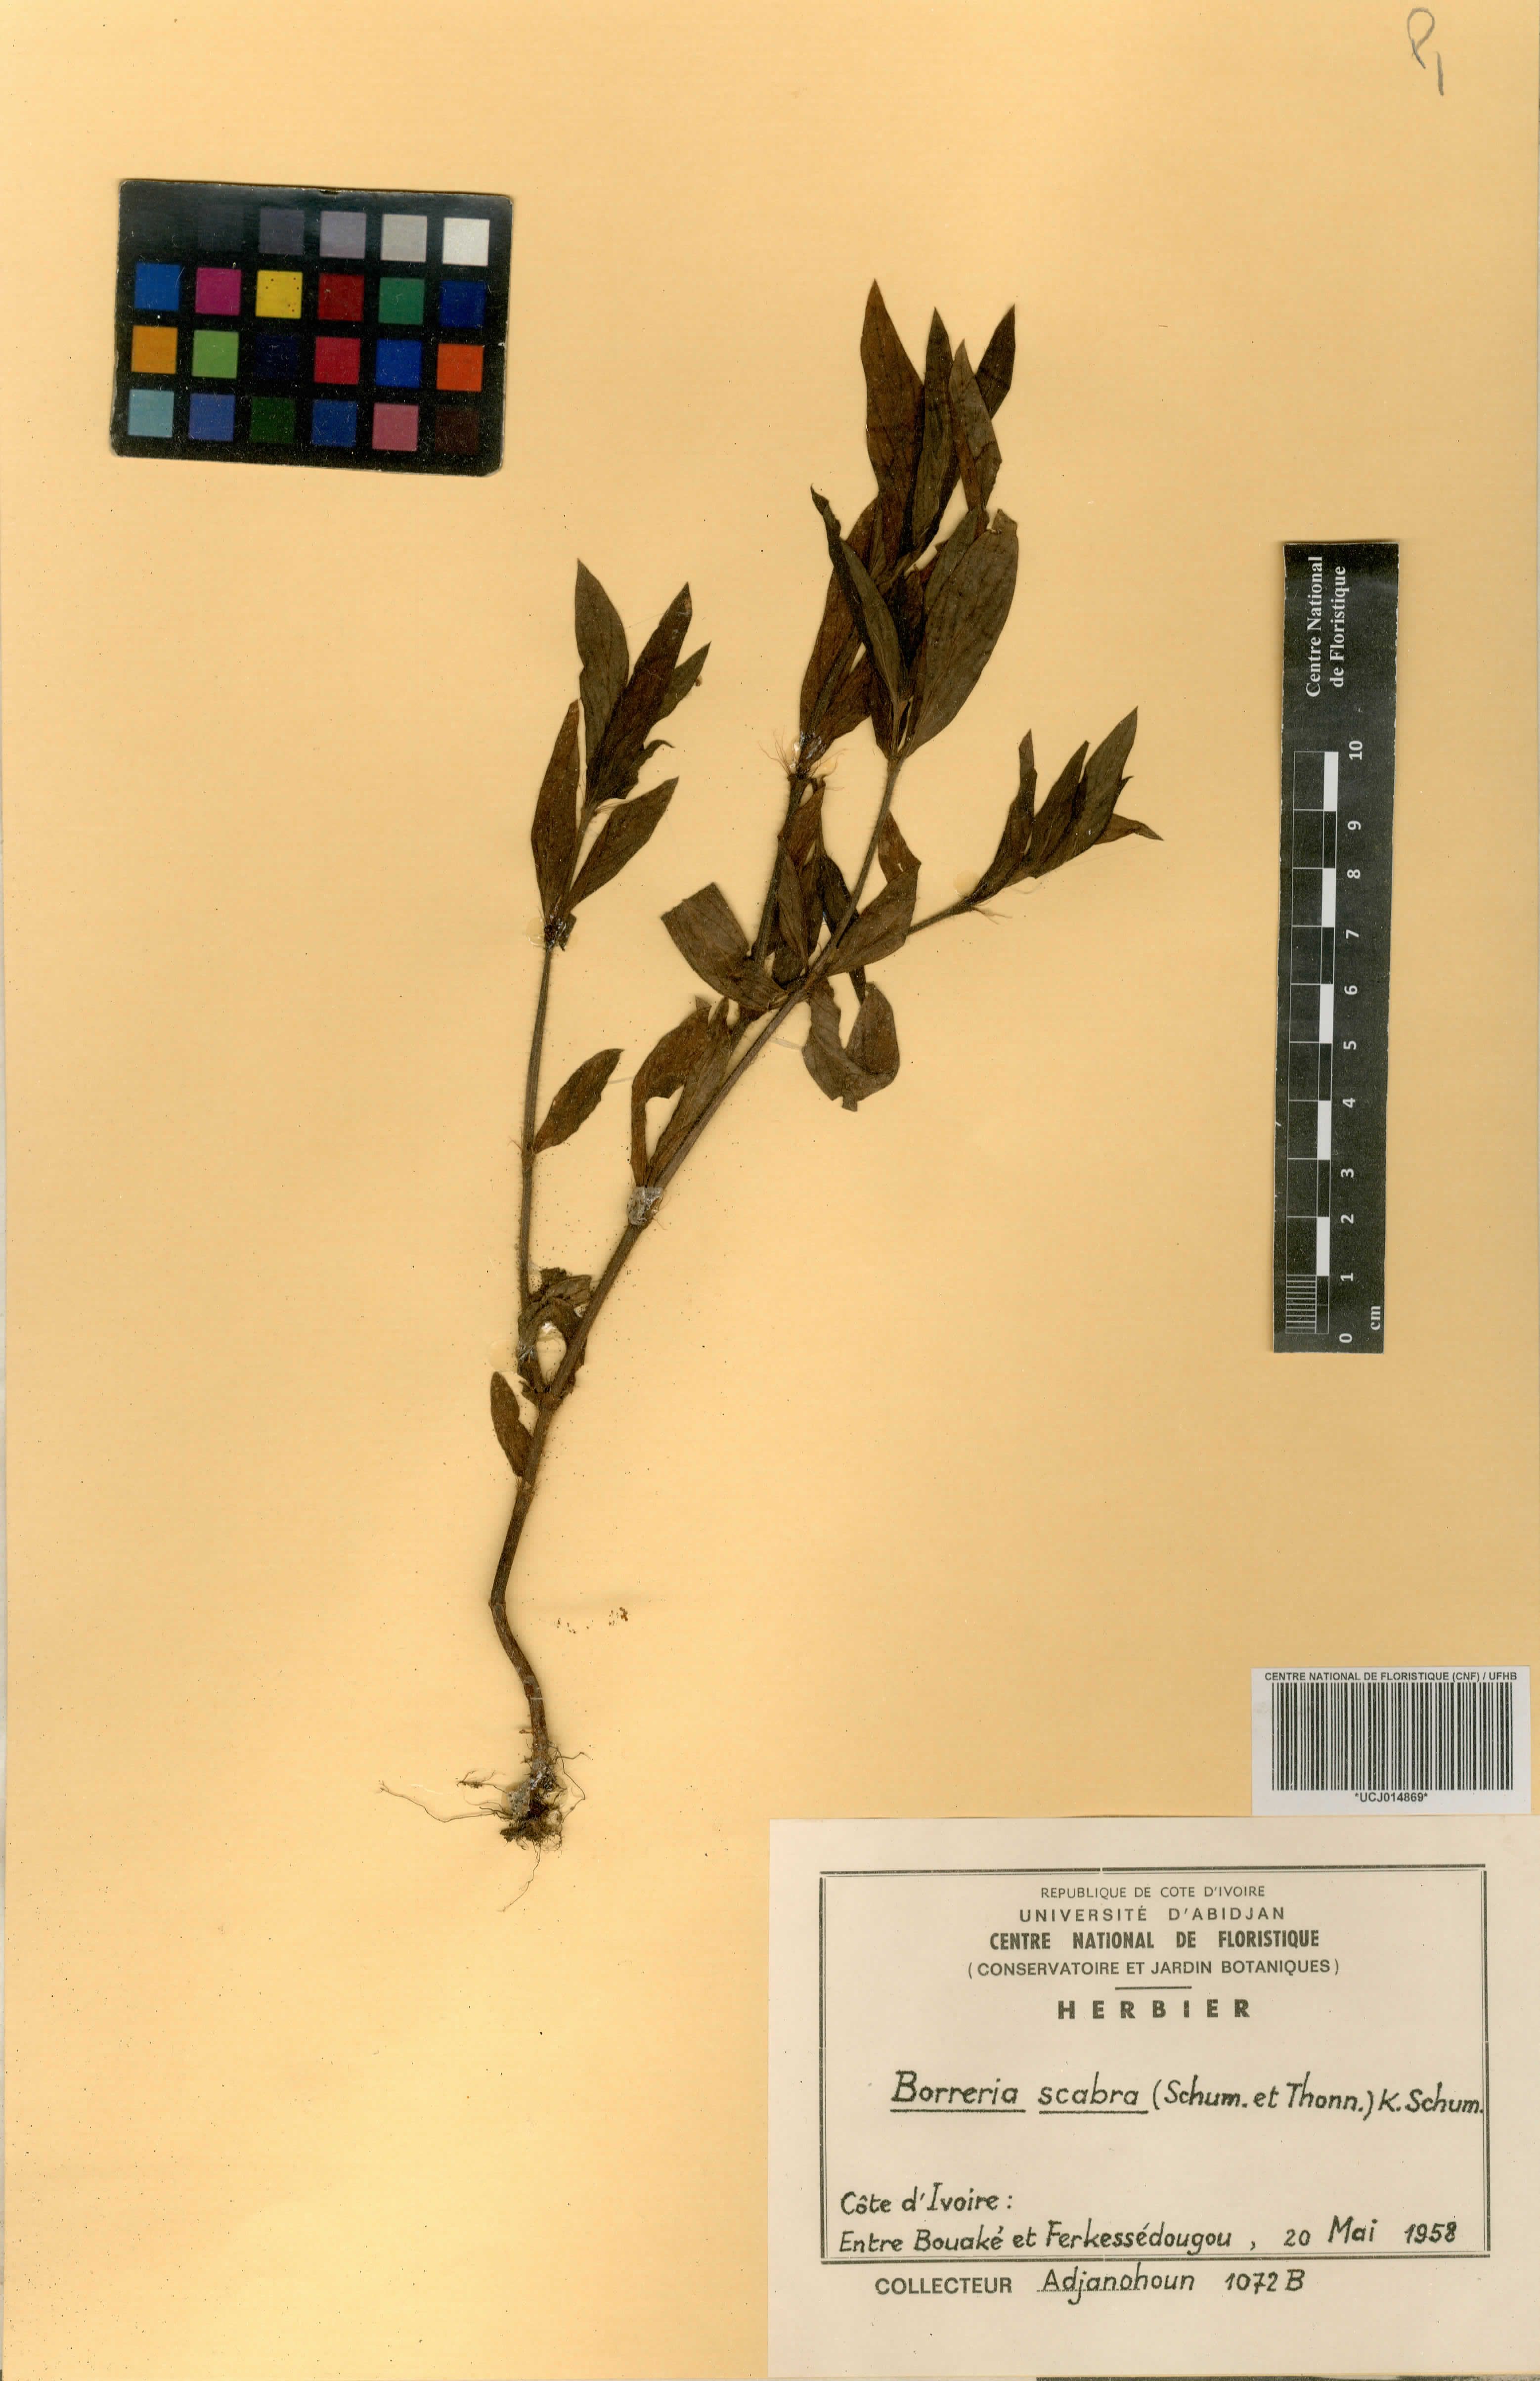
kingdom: Plantae
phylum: Tracheophyta
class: Magnoliopsida
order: Gentianales
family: Rubiaceae
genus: Spermacoce
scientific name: Spermacoce ruelliae
